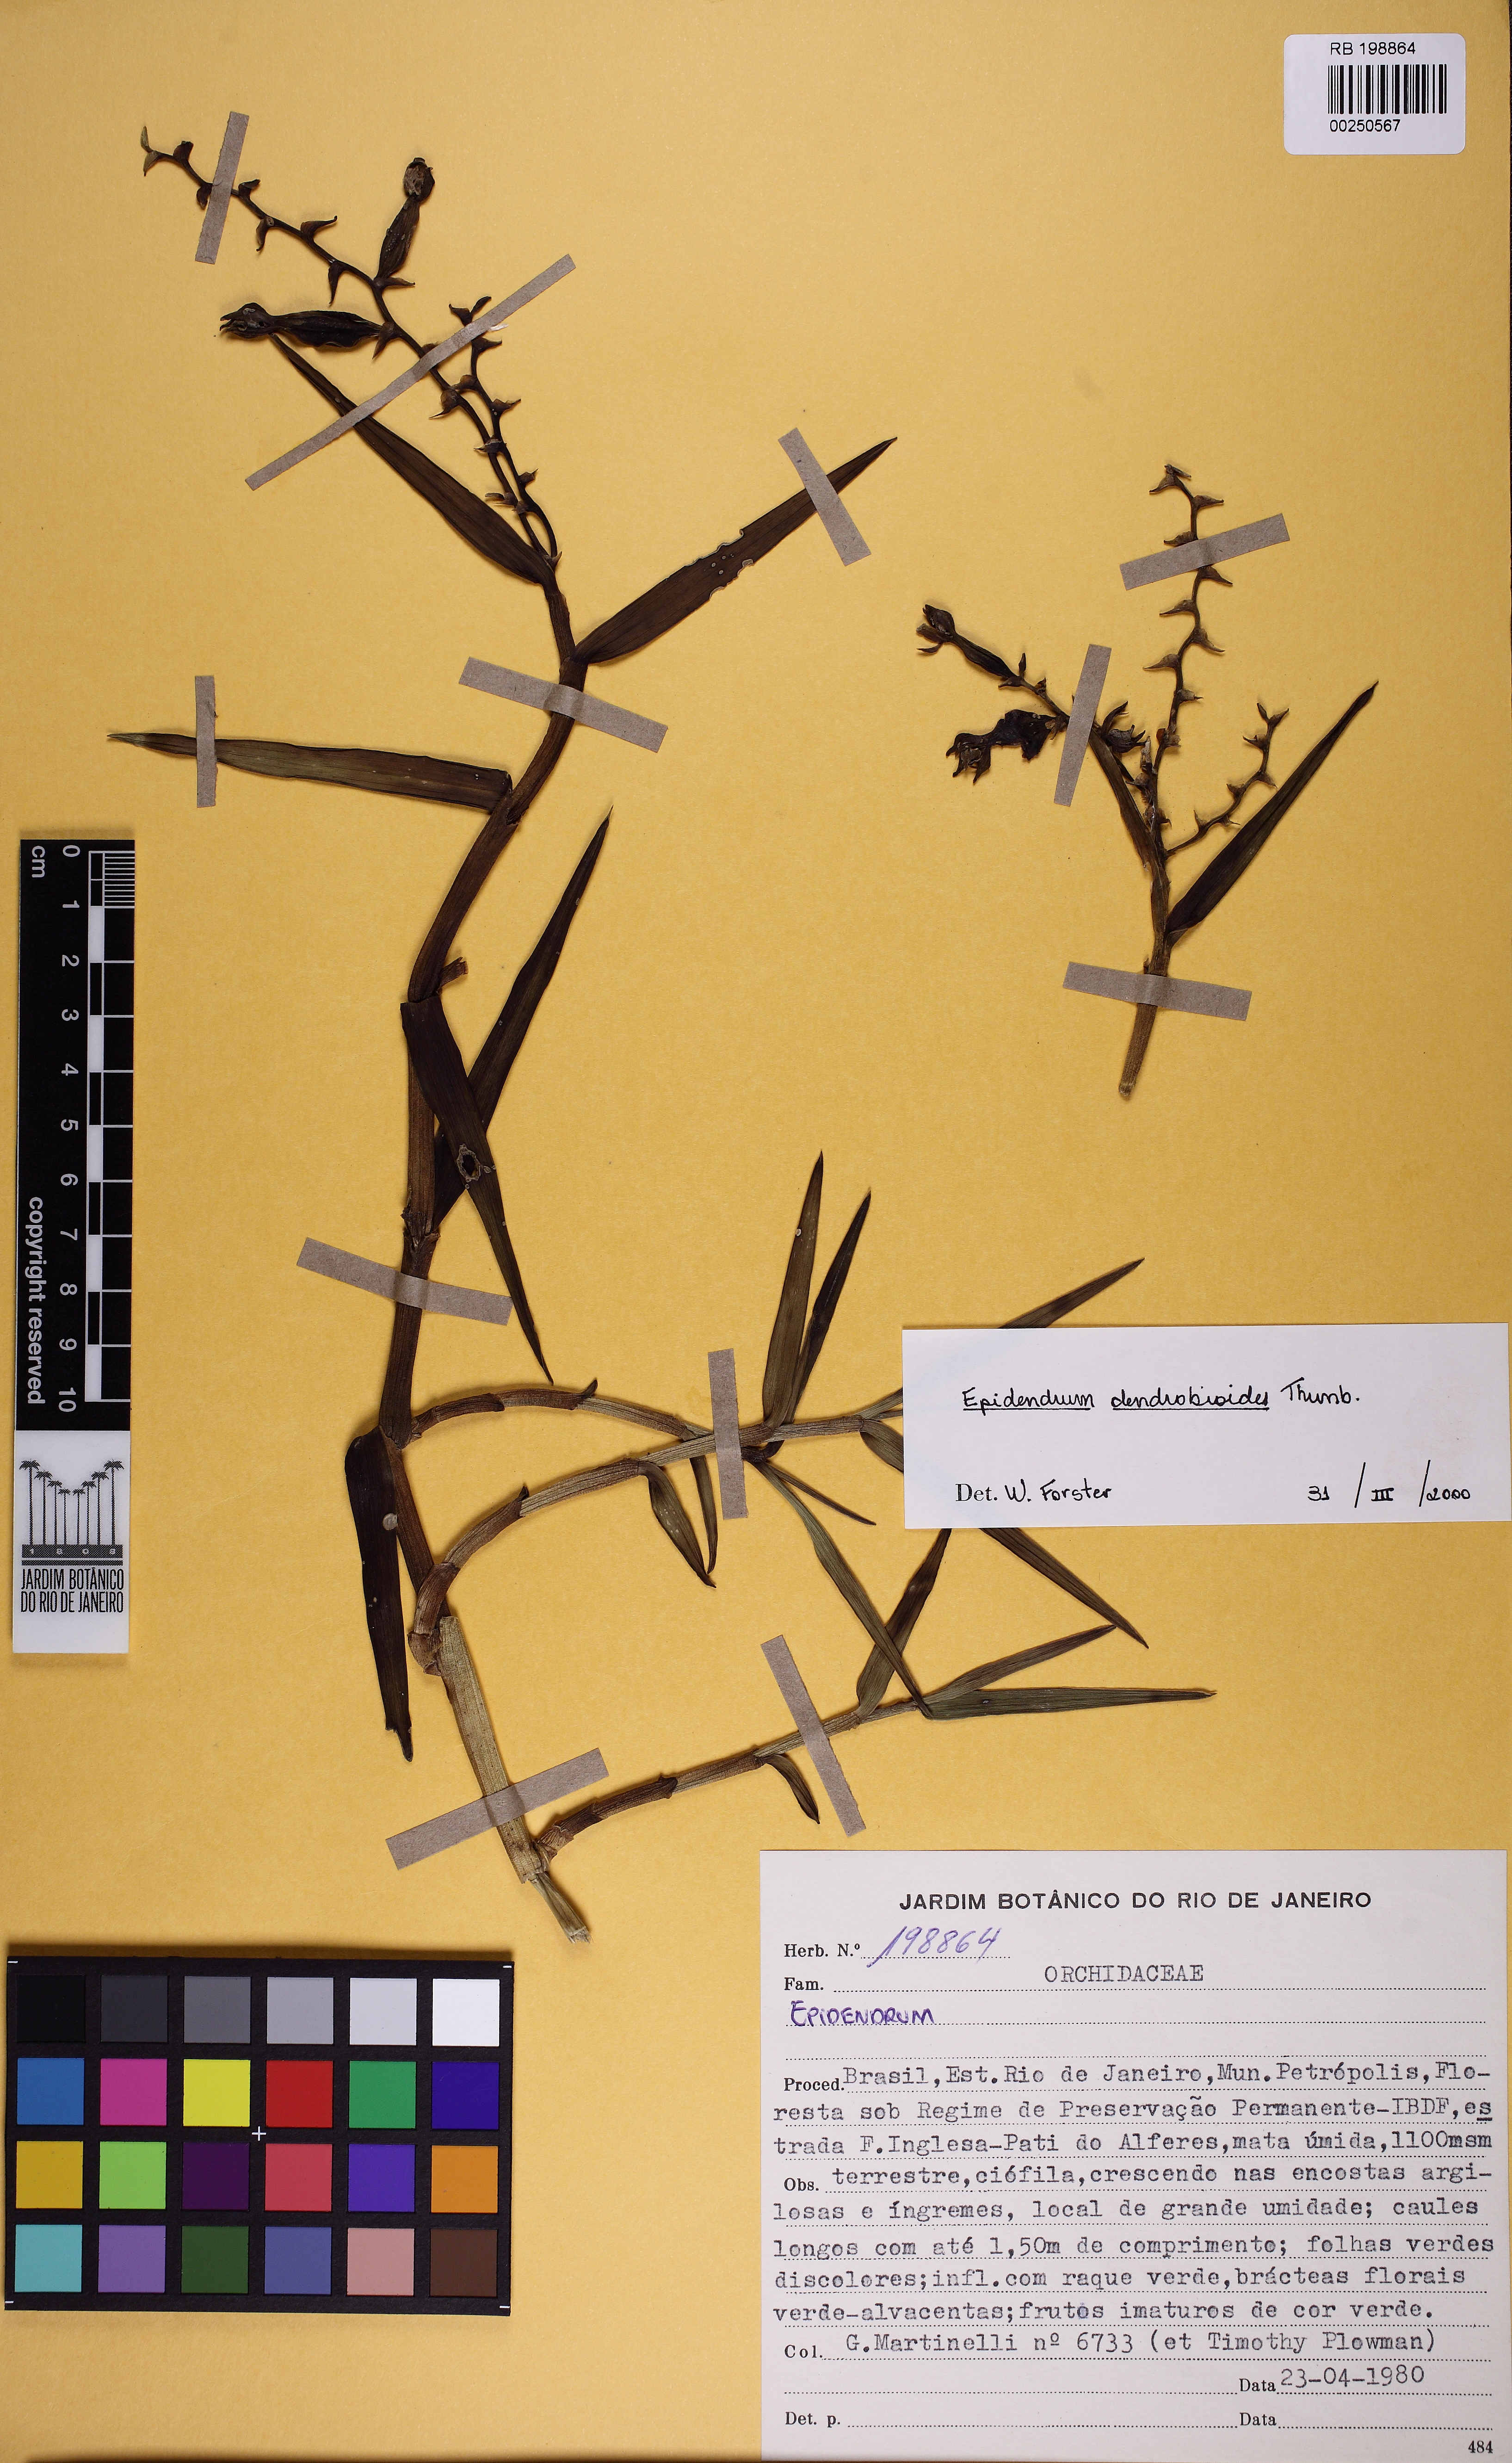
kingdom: Plantae
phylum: Tracheophyta
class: Liliopsida
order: Asparagales
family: Orchidaceae
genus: Epidendrum
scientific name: Epidendrum dendrobioides
